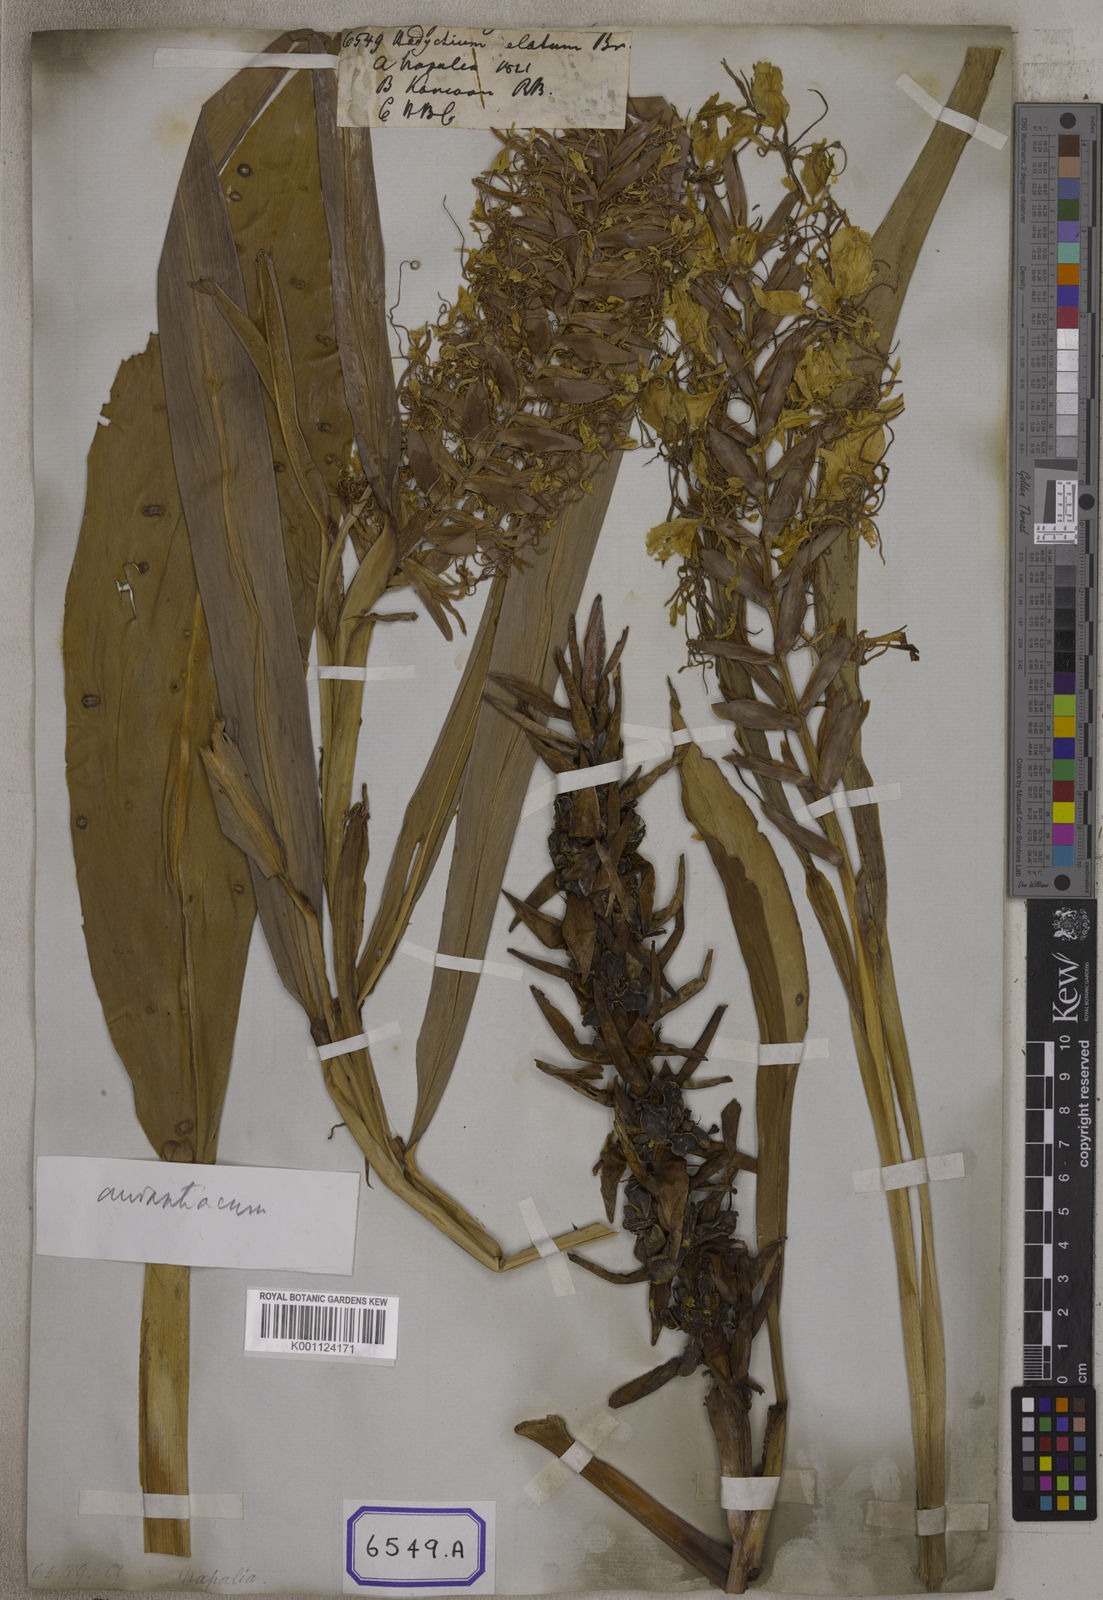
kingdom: Plantae
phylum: Tracheophyta
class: Liliopsida
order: Zingiberales
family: Zingiberaceae
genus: Hedychium
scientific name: Hedychium elatum
